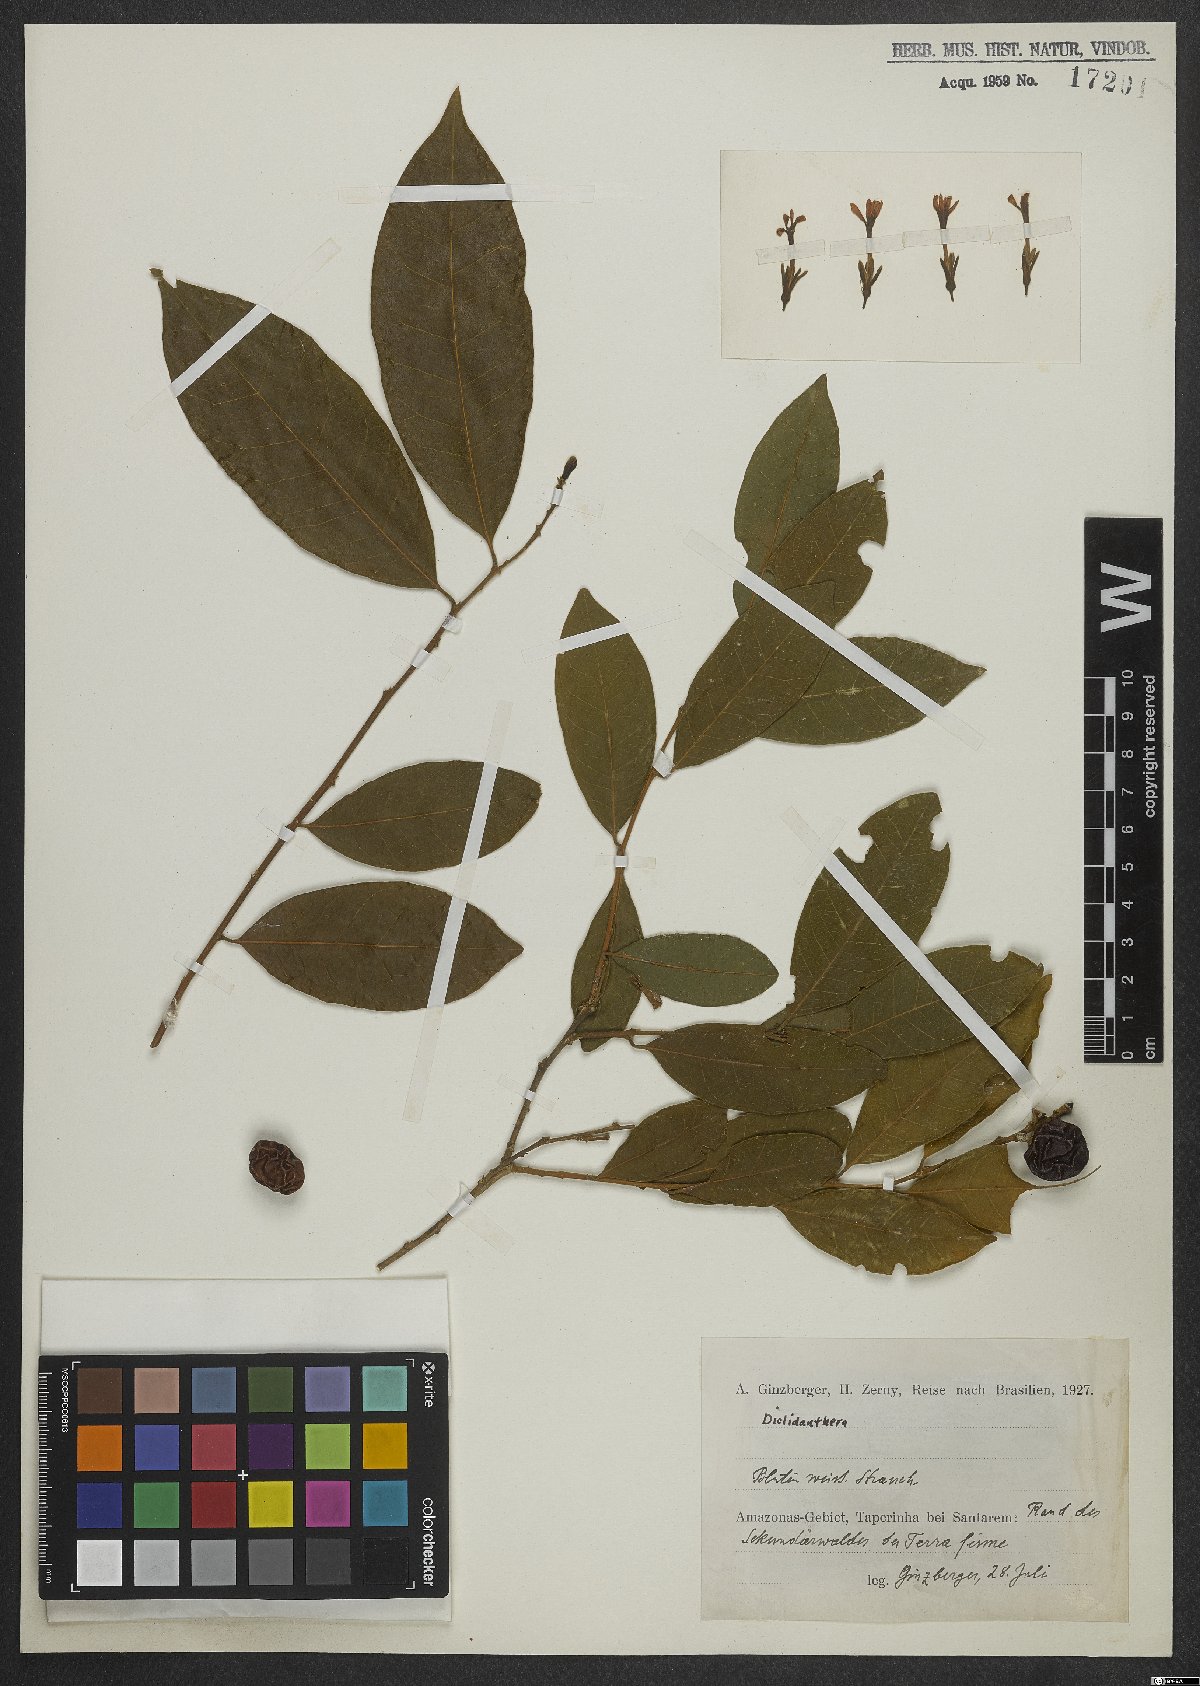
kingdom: Plantae
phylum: Tracheophyta
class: Magnoliopsida
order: Fabales
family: Polygalaceae
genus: Diclidanthera
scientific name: Diclidanthera
